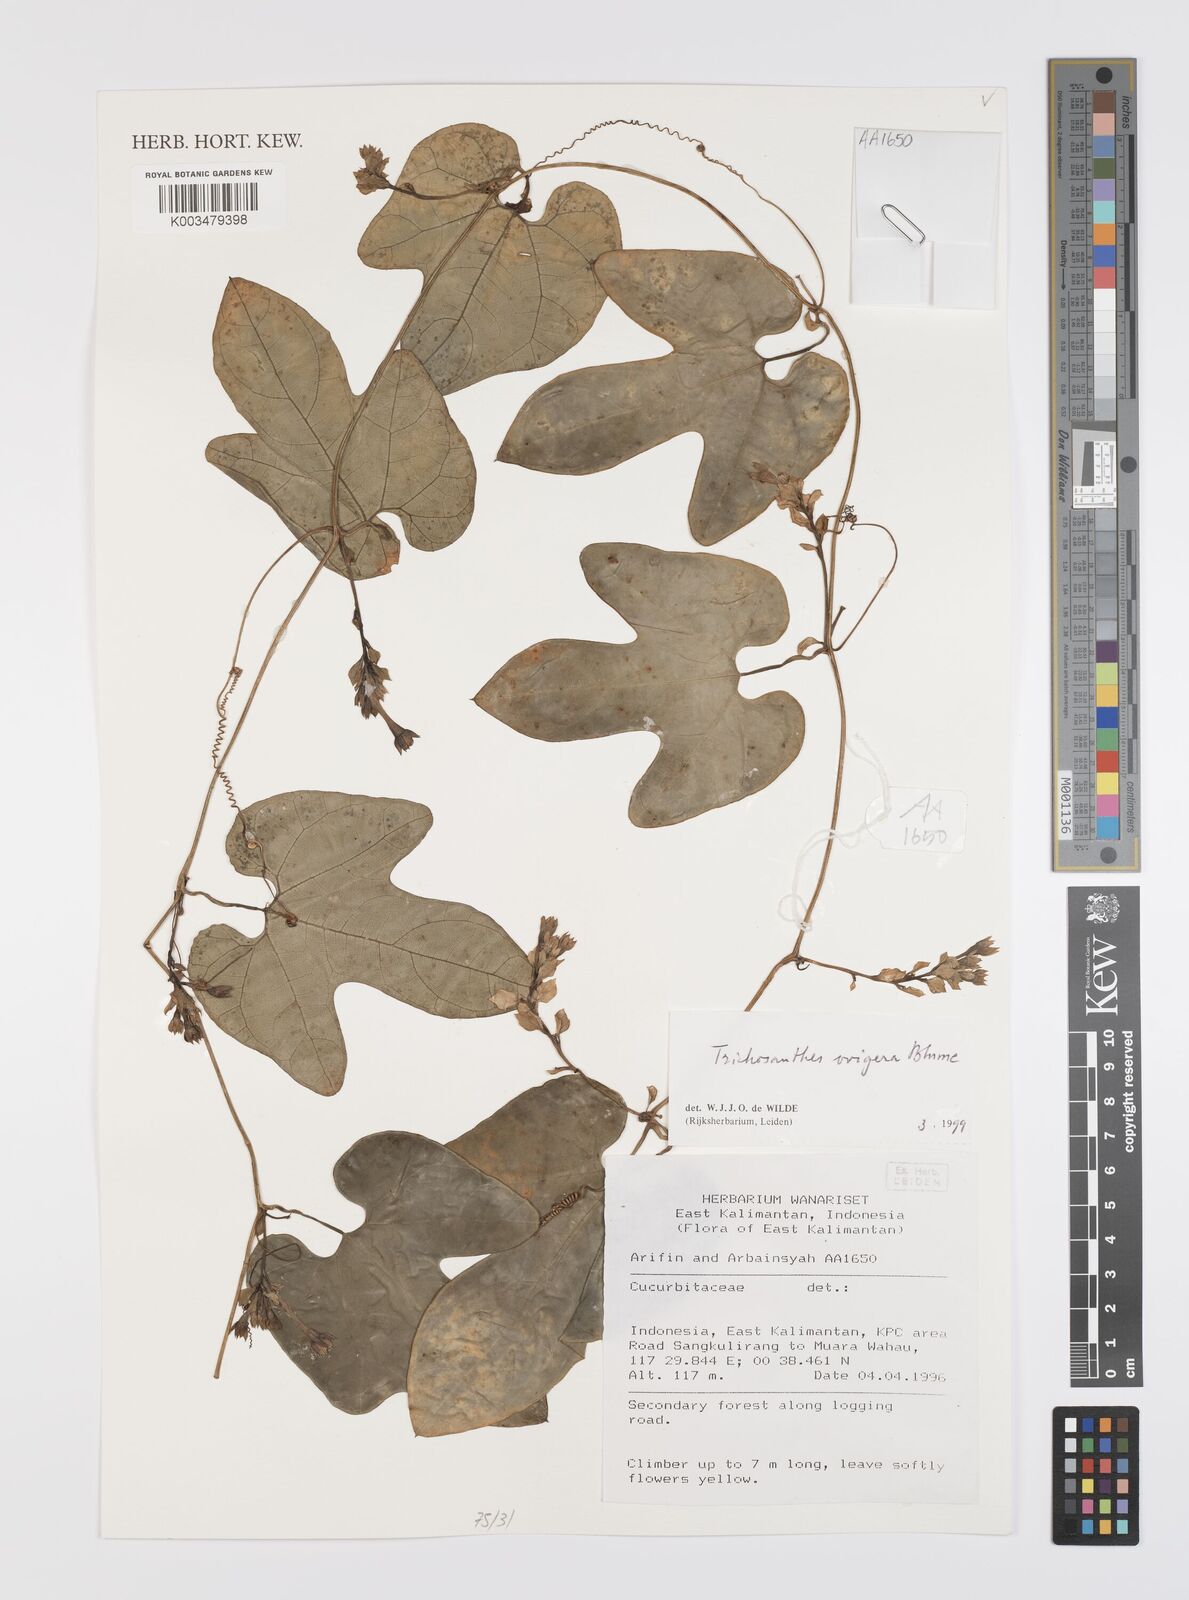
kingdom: Plantae
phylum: Tracheophyta
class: Magnoliopsida
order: Cucurbitales
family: Cucurbitaceae
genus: Trichosanthes
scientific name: Trichosanthes ovigera
